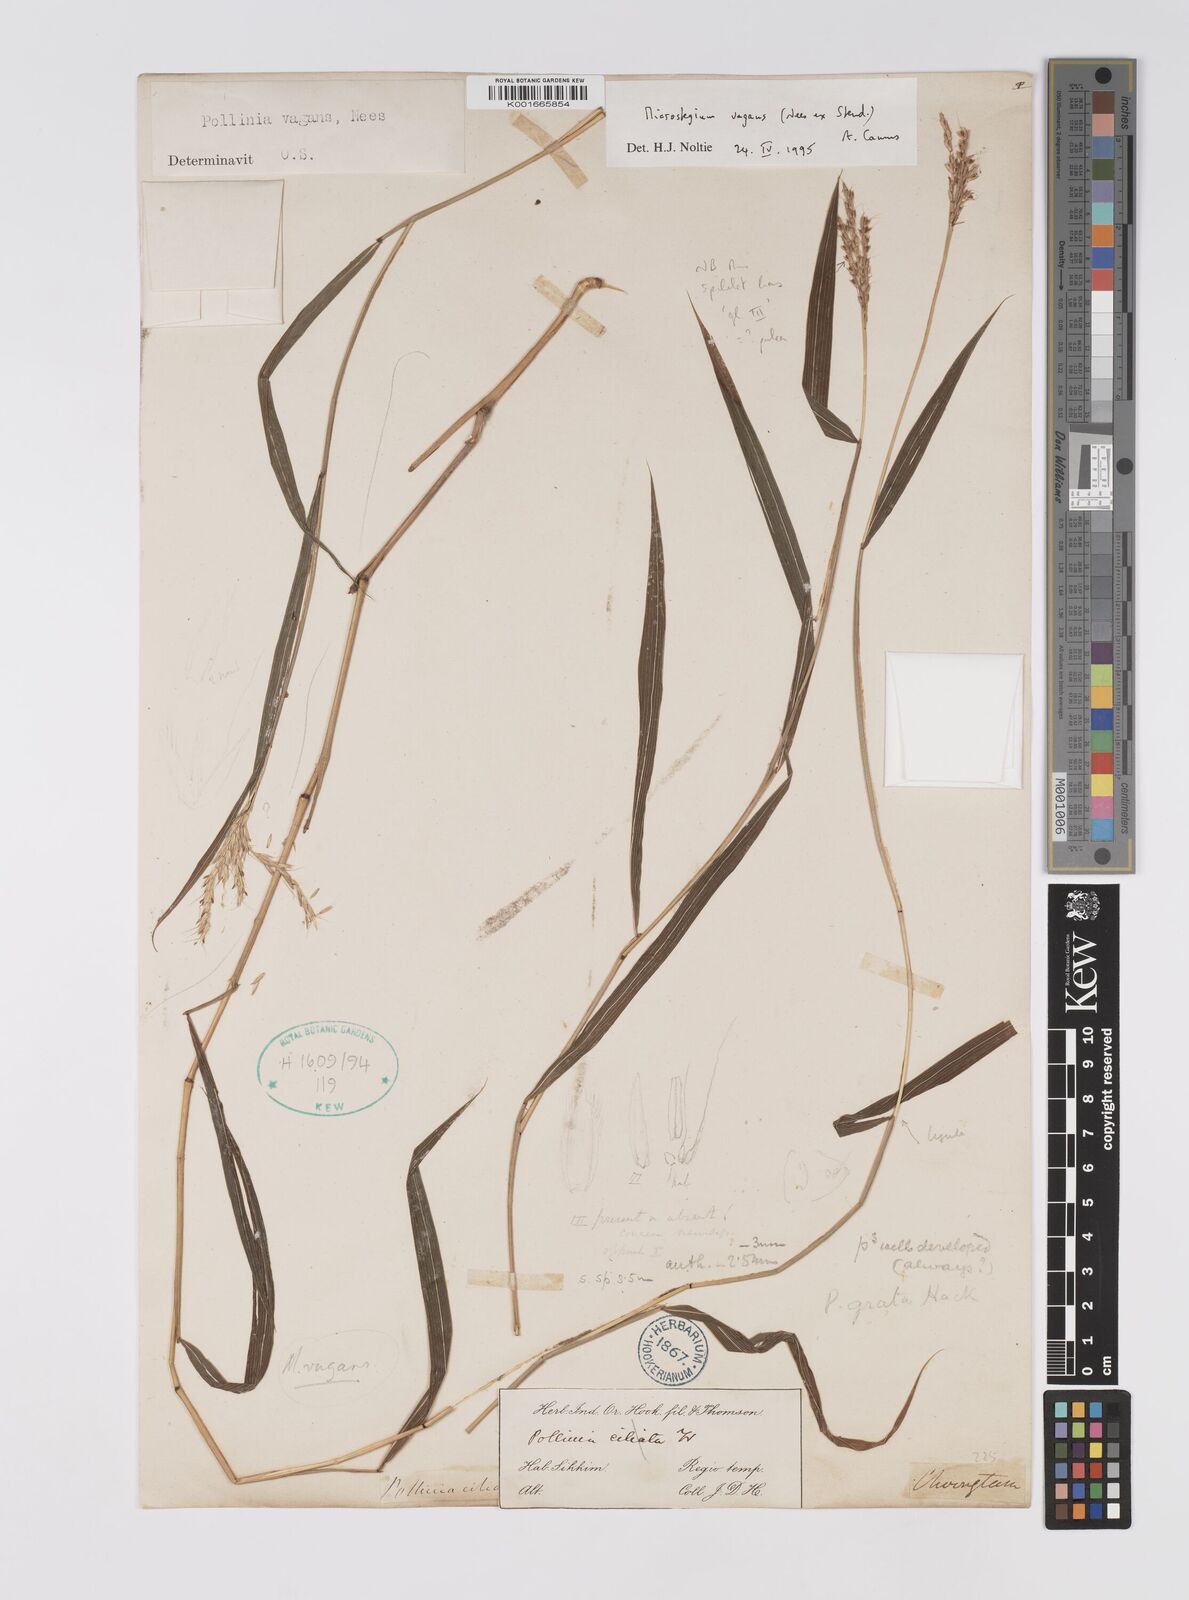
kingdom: Plantae
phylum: Tracheophyta
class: Liliopsida
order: Poales
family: Poaceae
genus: Microstegium
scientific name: Microstegium fasciculatum
